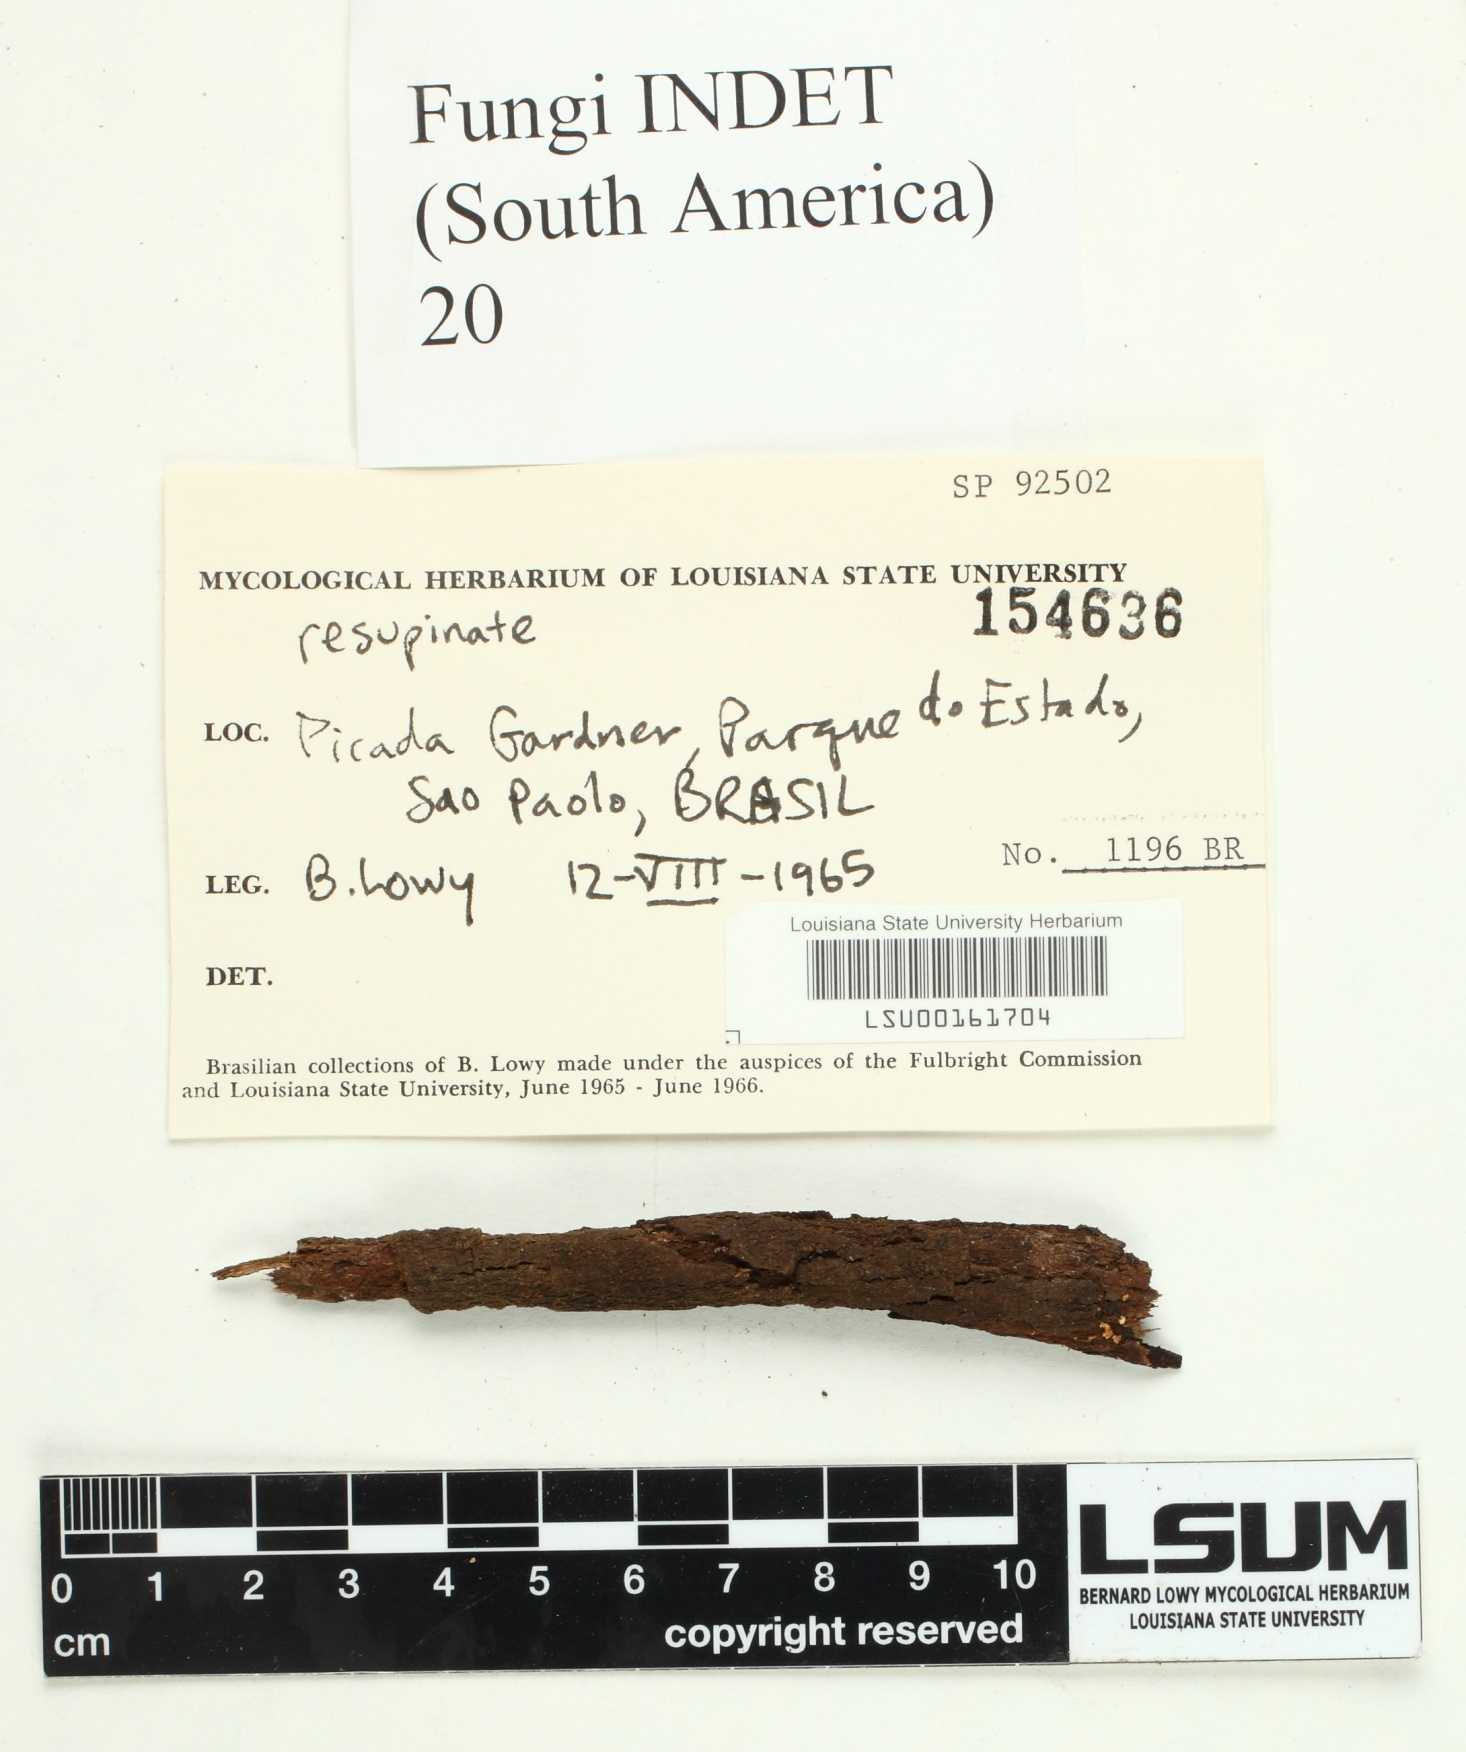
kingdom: Fungi
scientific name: Fungi
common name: Fungi
